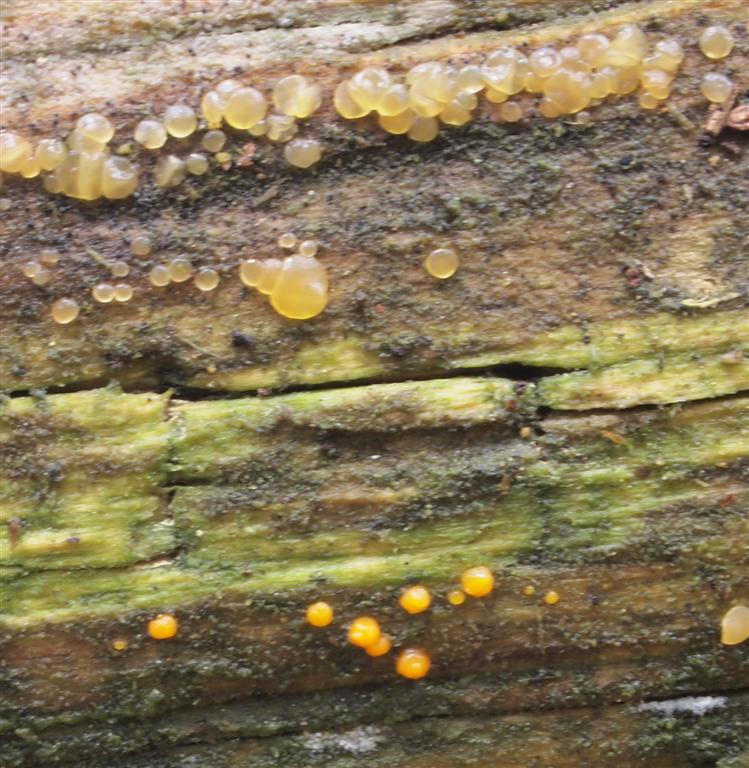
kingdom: Fungi
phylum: Basidiomycota
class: Dacrymycetes
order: Dacrymycetales
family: Dacrymycetaceae
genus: Dacrymyces
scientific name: Dacrymyces lacrymalis
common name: rynket tåresvamp
